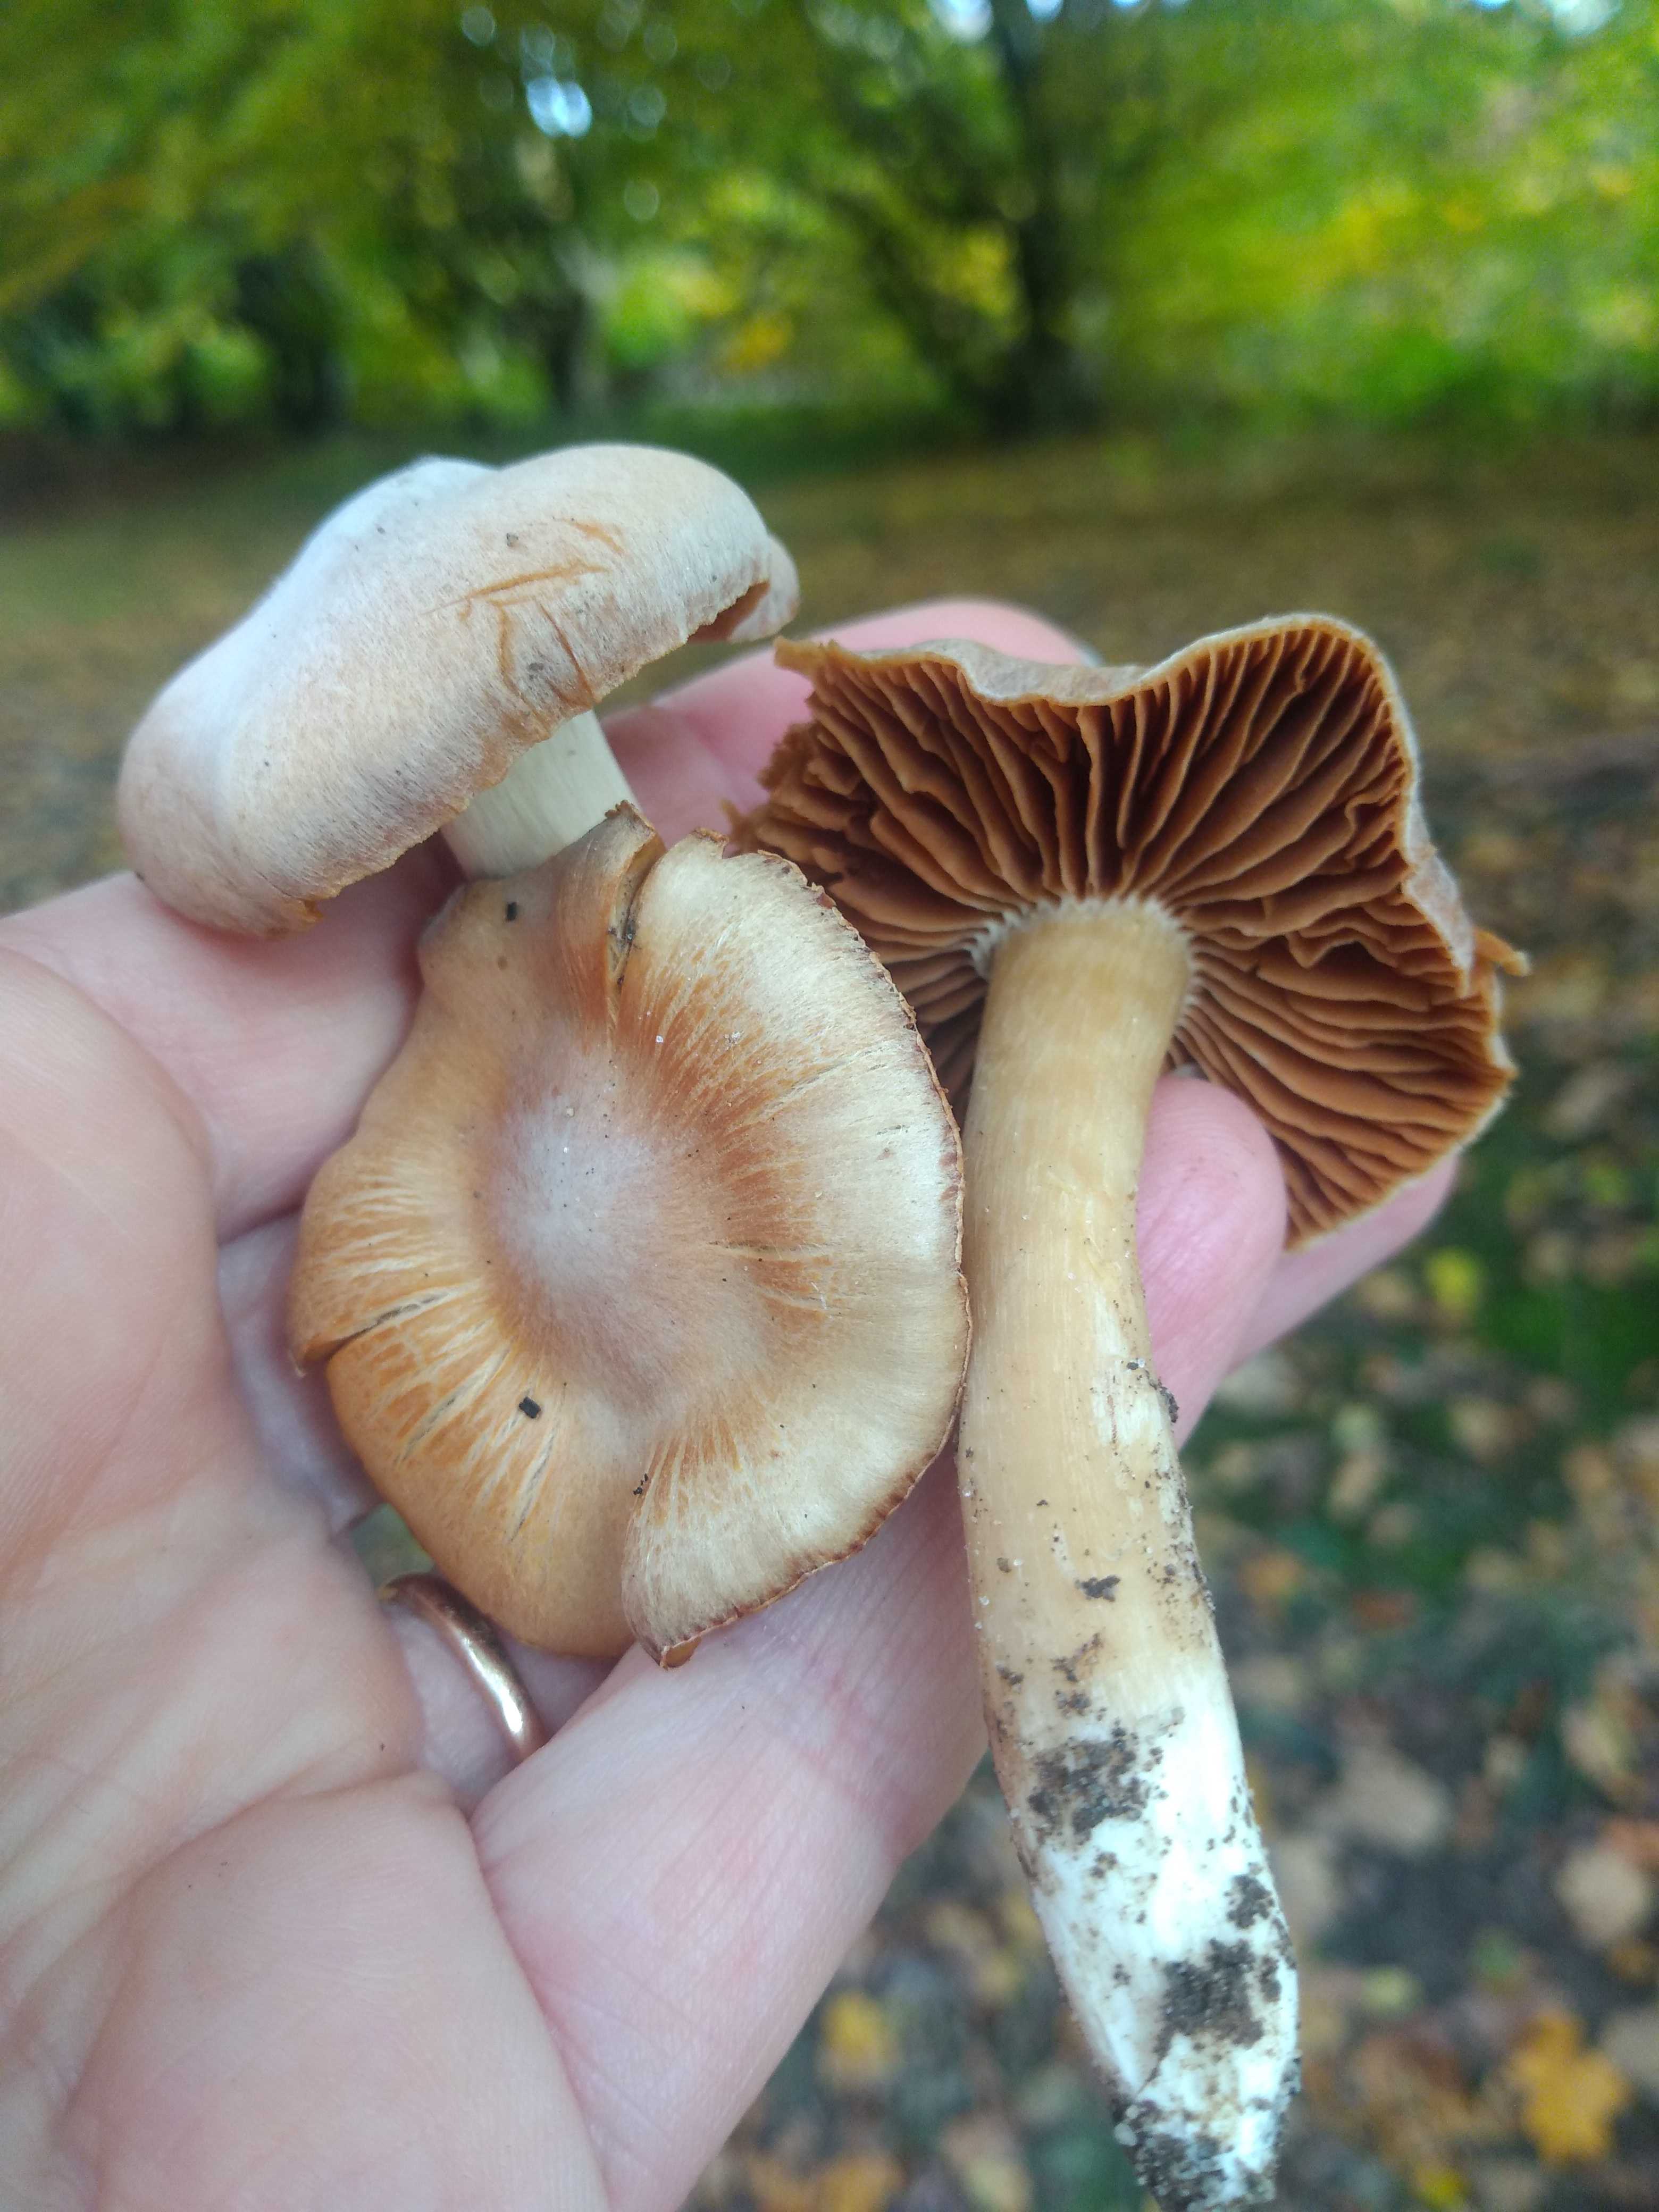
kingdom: Fungi
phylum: Basidiomycota
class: Agaricomycetes
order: Agaricales
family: Cortinariaceae
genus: Cortinarius
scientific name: Cortinarius pruinatus
